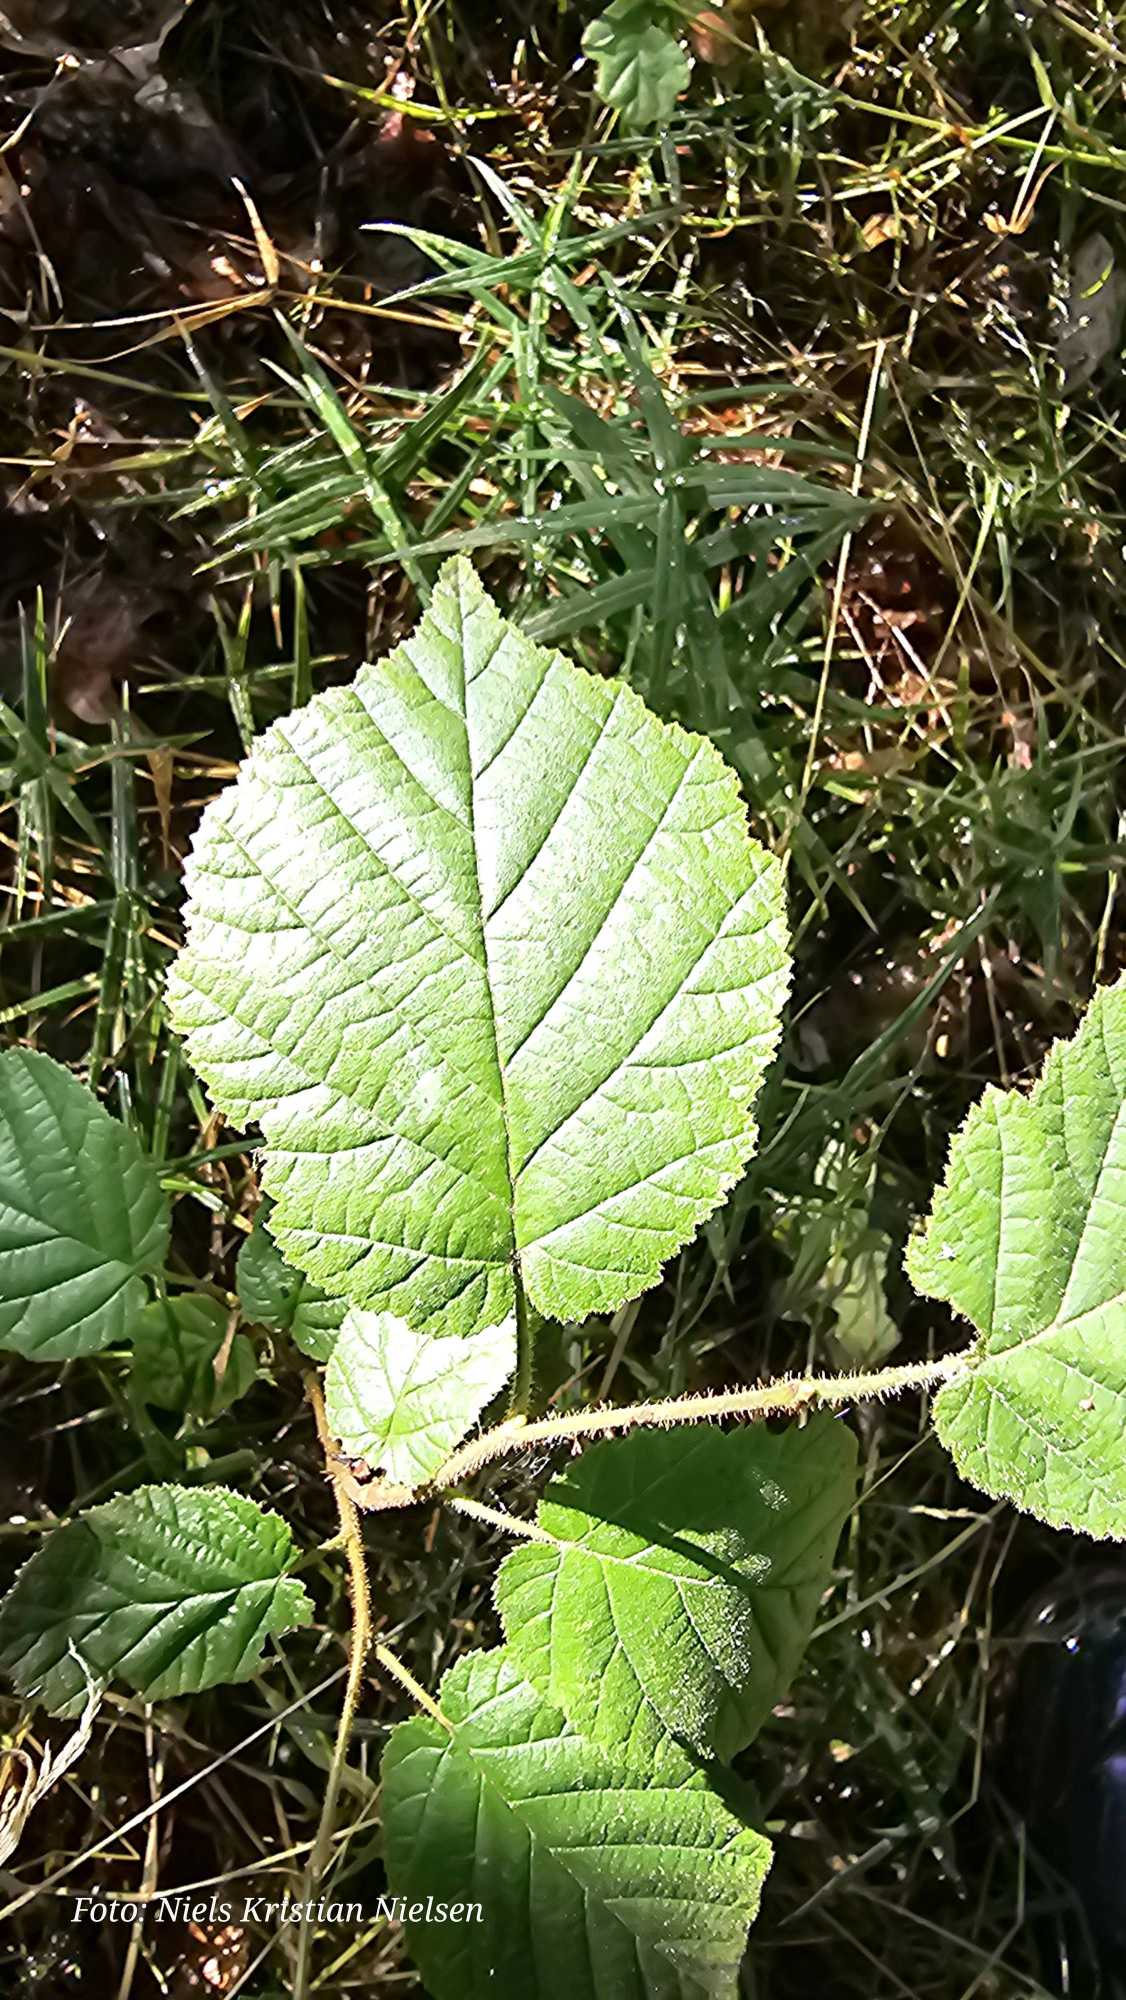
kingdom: Plantae
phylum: Tracheophyta
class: Magnoliopsida
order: Fagales
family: Betulaceae
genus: Corylus
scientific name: Corylus avellana
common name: Hassel
